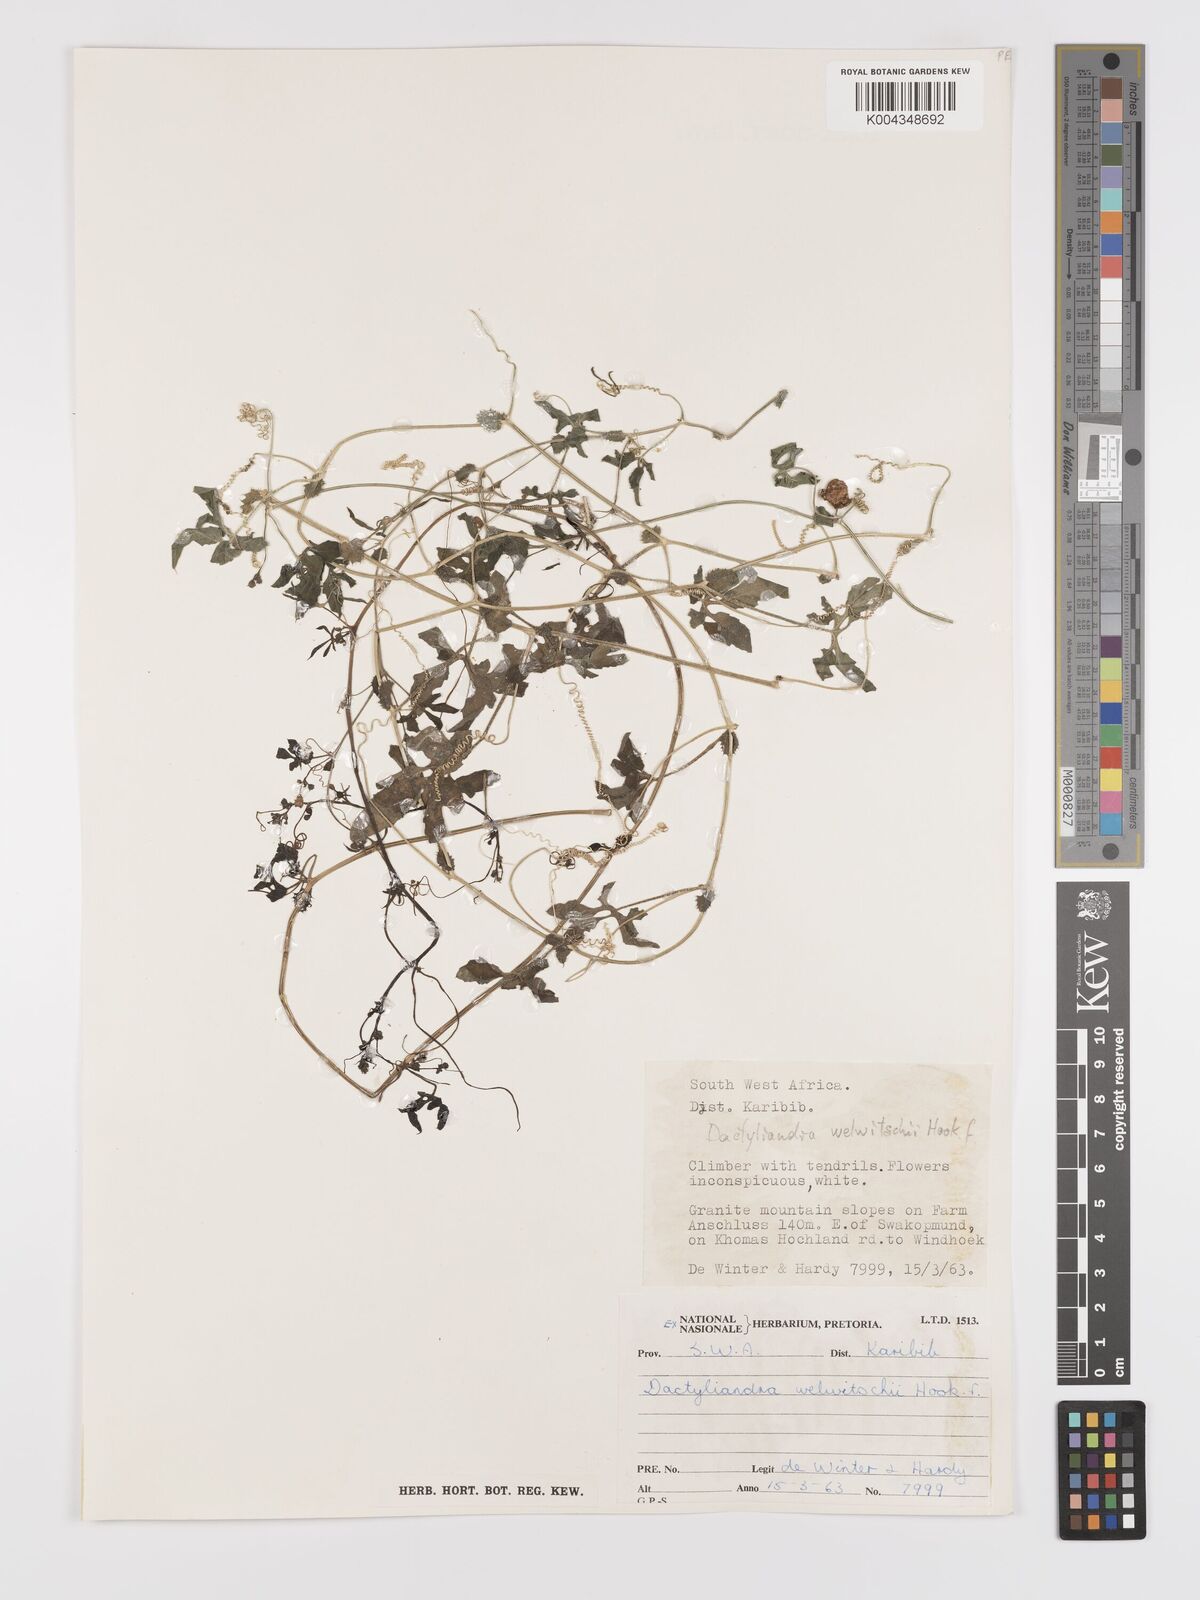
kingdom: Plantae
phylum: Tracheophyta
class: Magnoliopsida
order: Cucurbitales
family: Cucurbitaceae
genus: Dactyliandra
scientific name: Dactyliandra welwitschii
